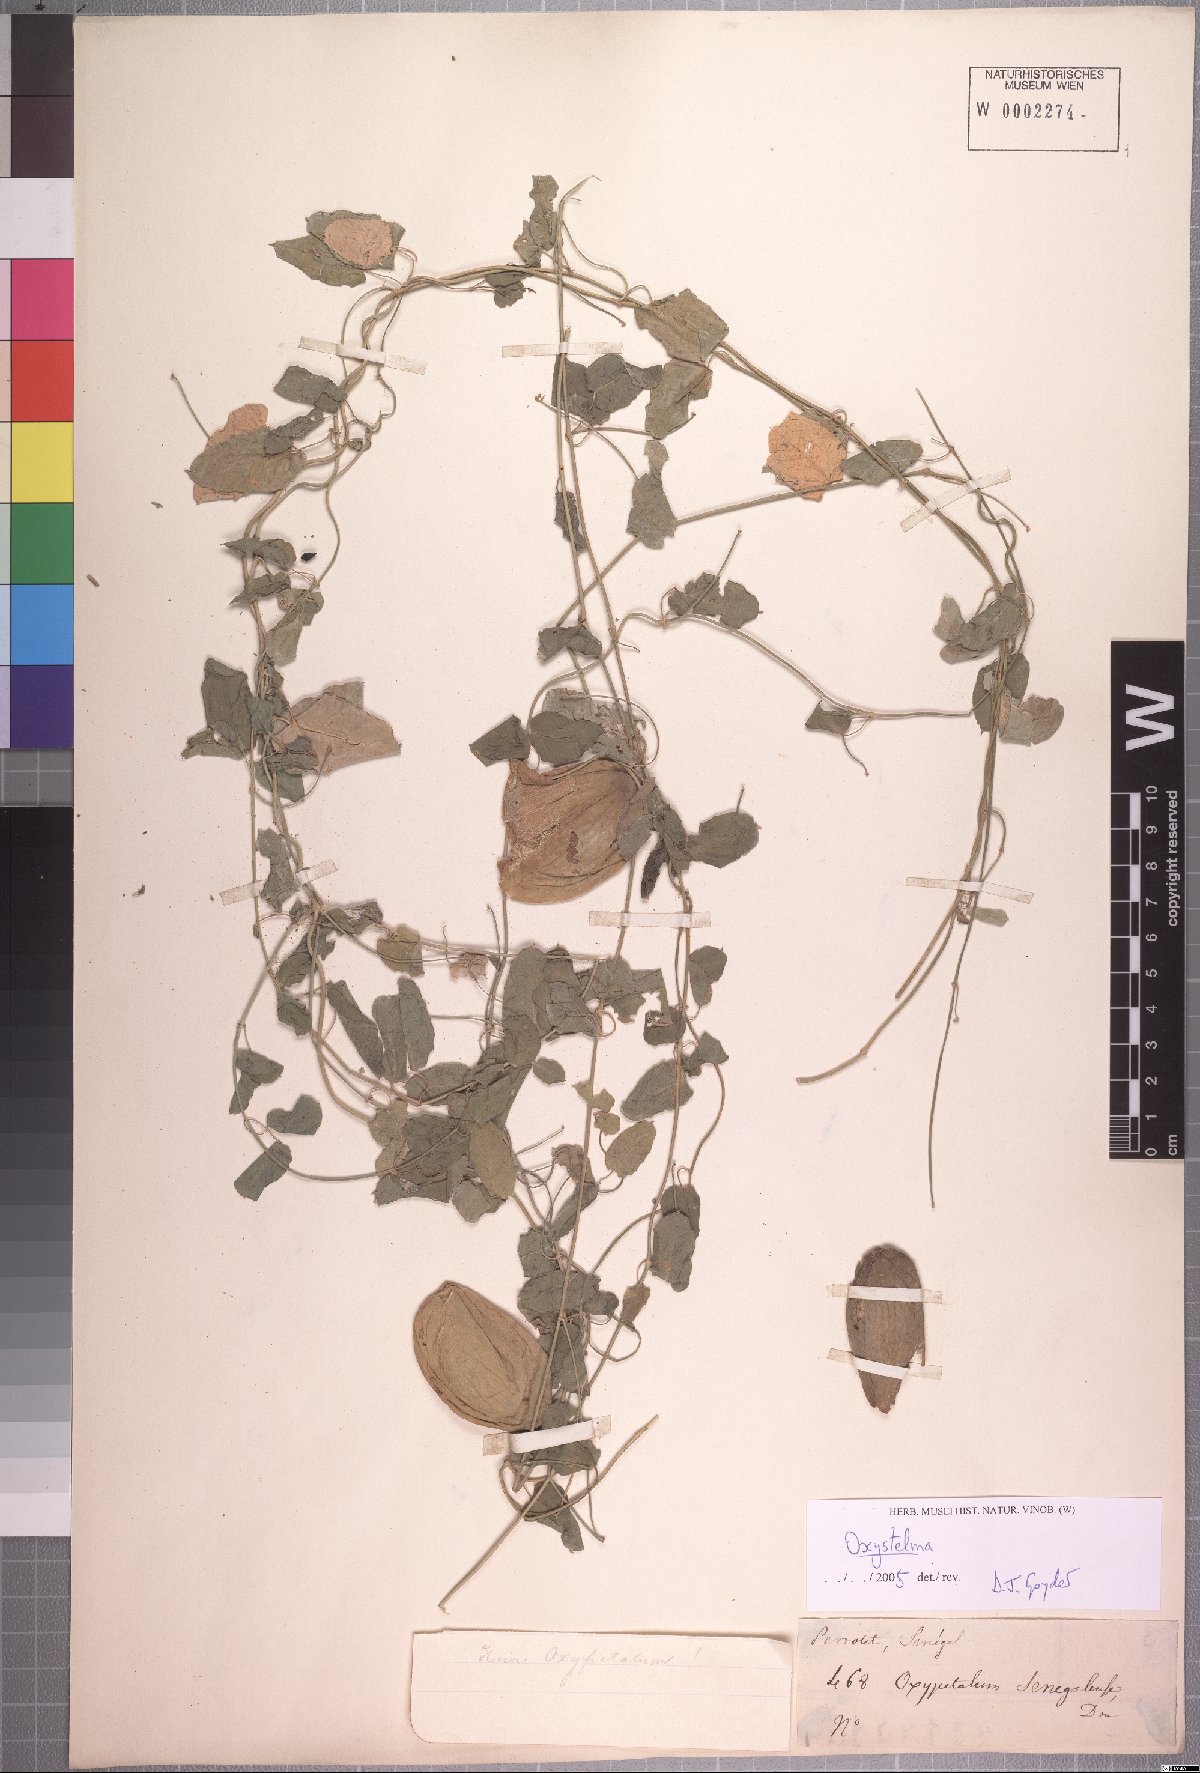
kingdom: Plantae
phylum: Tracheophyta
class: Magnoliopsida
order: Gentianales
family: Apocynaceae
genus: Oxystelma
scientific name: Oxystelma bornouense
